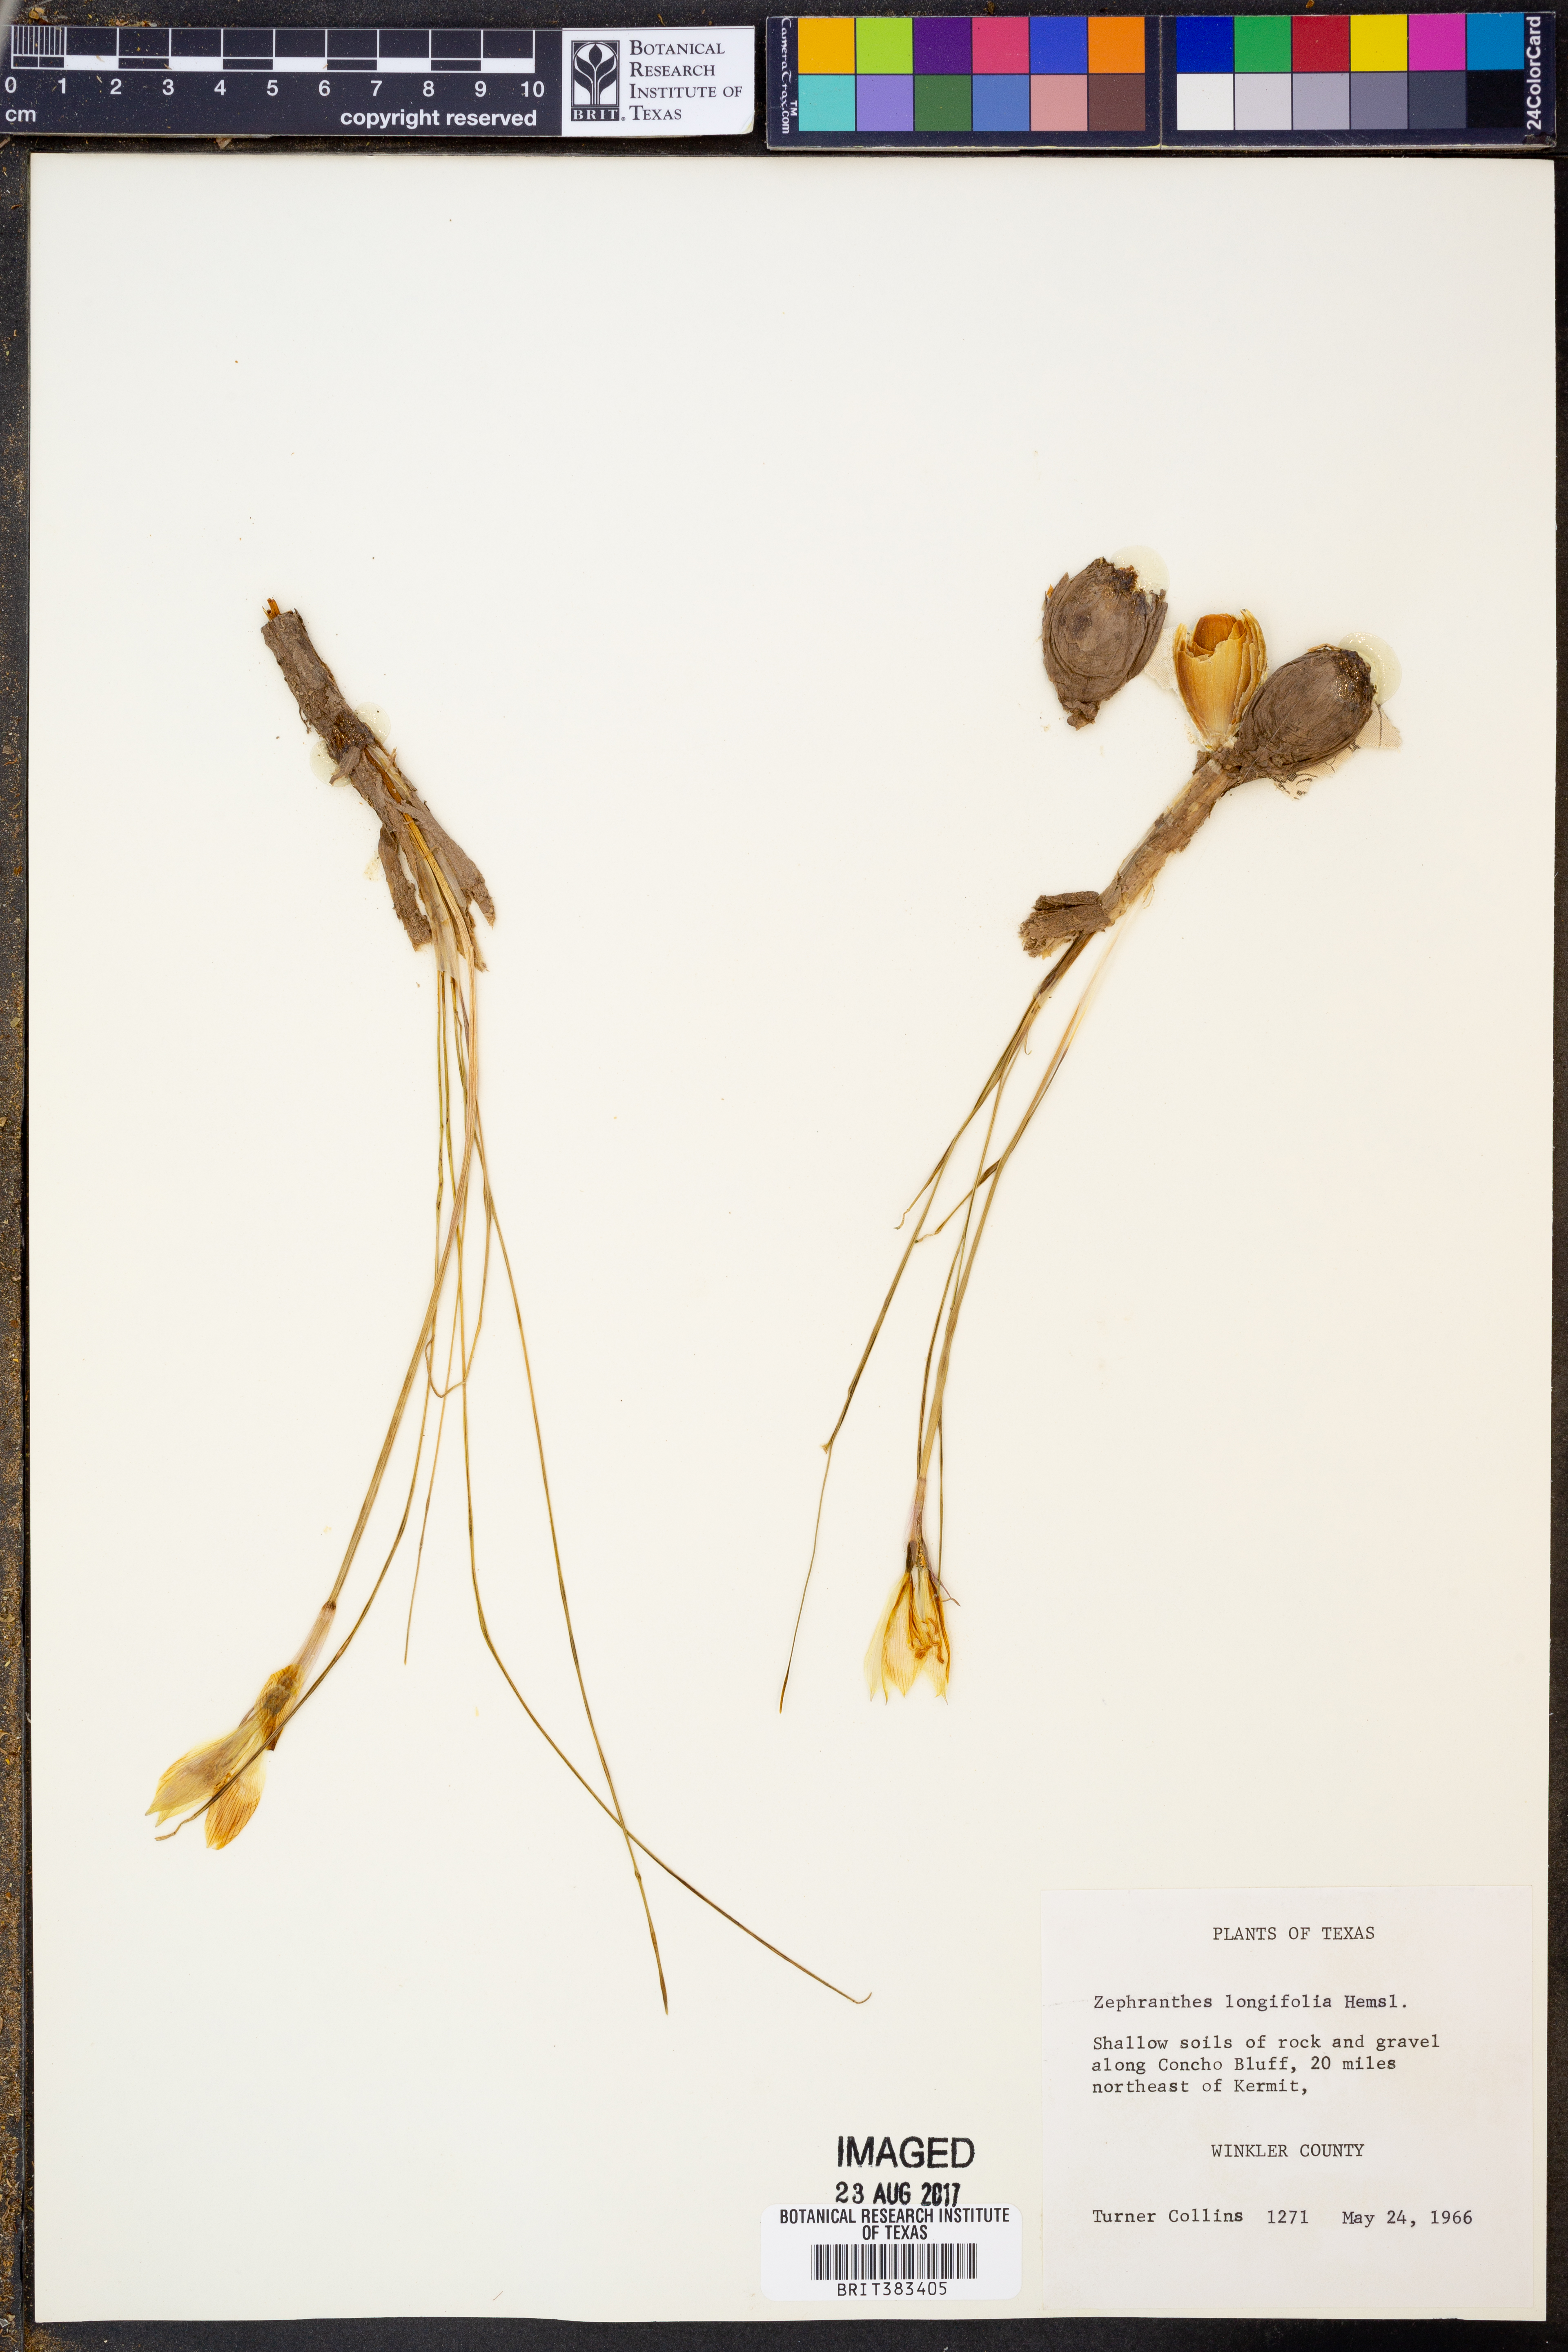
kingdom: Plantae
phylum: Tracheophyta
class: Liliopsida
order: Asparagales
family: Amaryllidaceae
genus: Zephyranthes
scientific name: Zephyranthes longifolia
